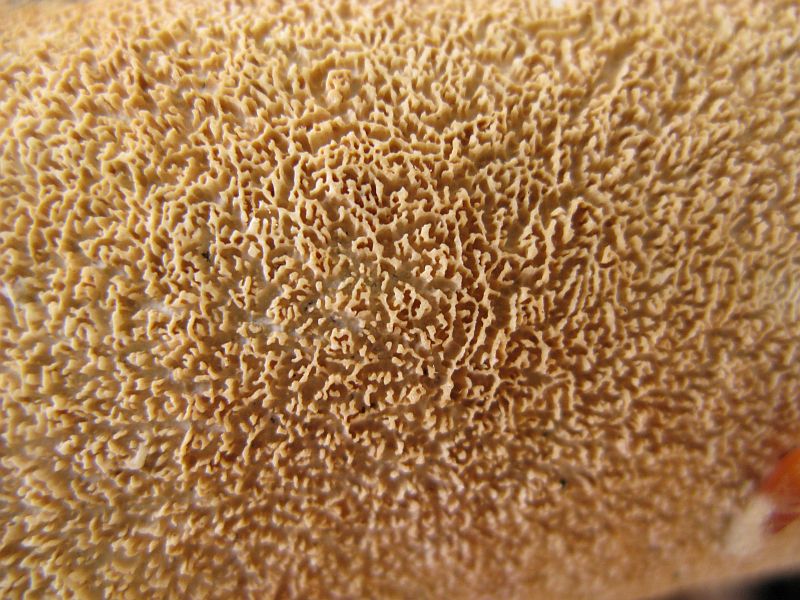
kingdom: Fungi
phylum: Basidiomycota
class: Agaricomycetes
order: Hymenochaetales
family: Schizoporaceae
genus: Schizopora
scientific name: Schizopora paradoxa
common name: hvid tandsvamp
